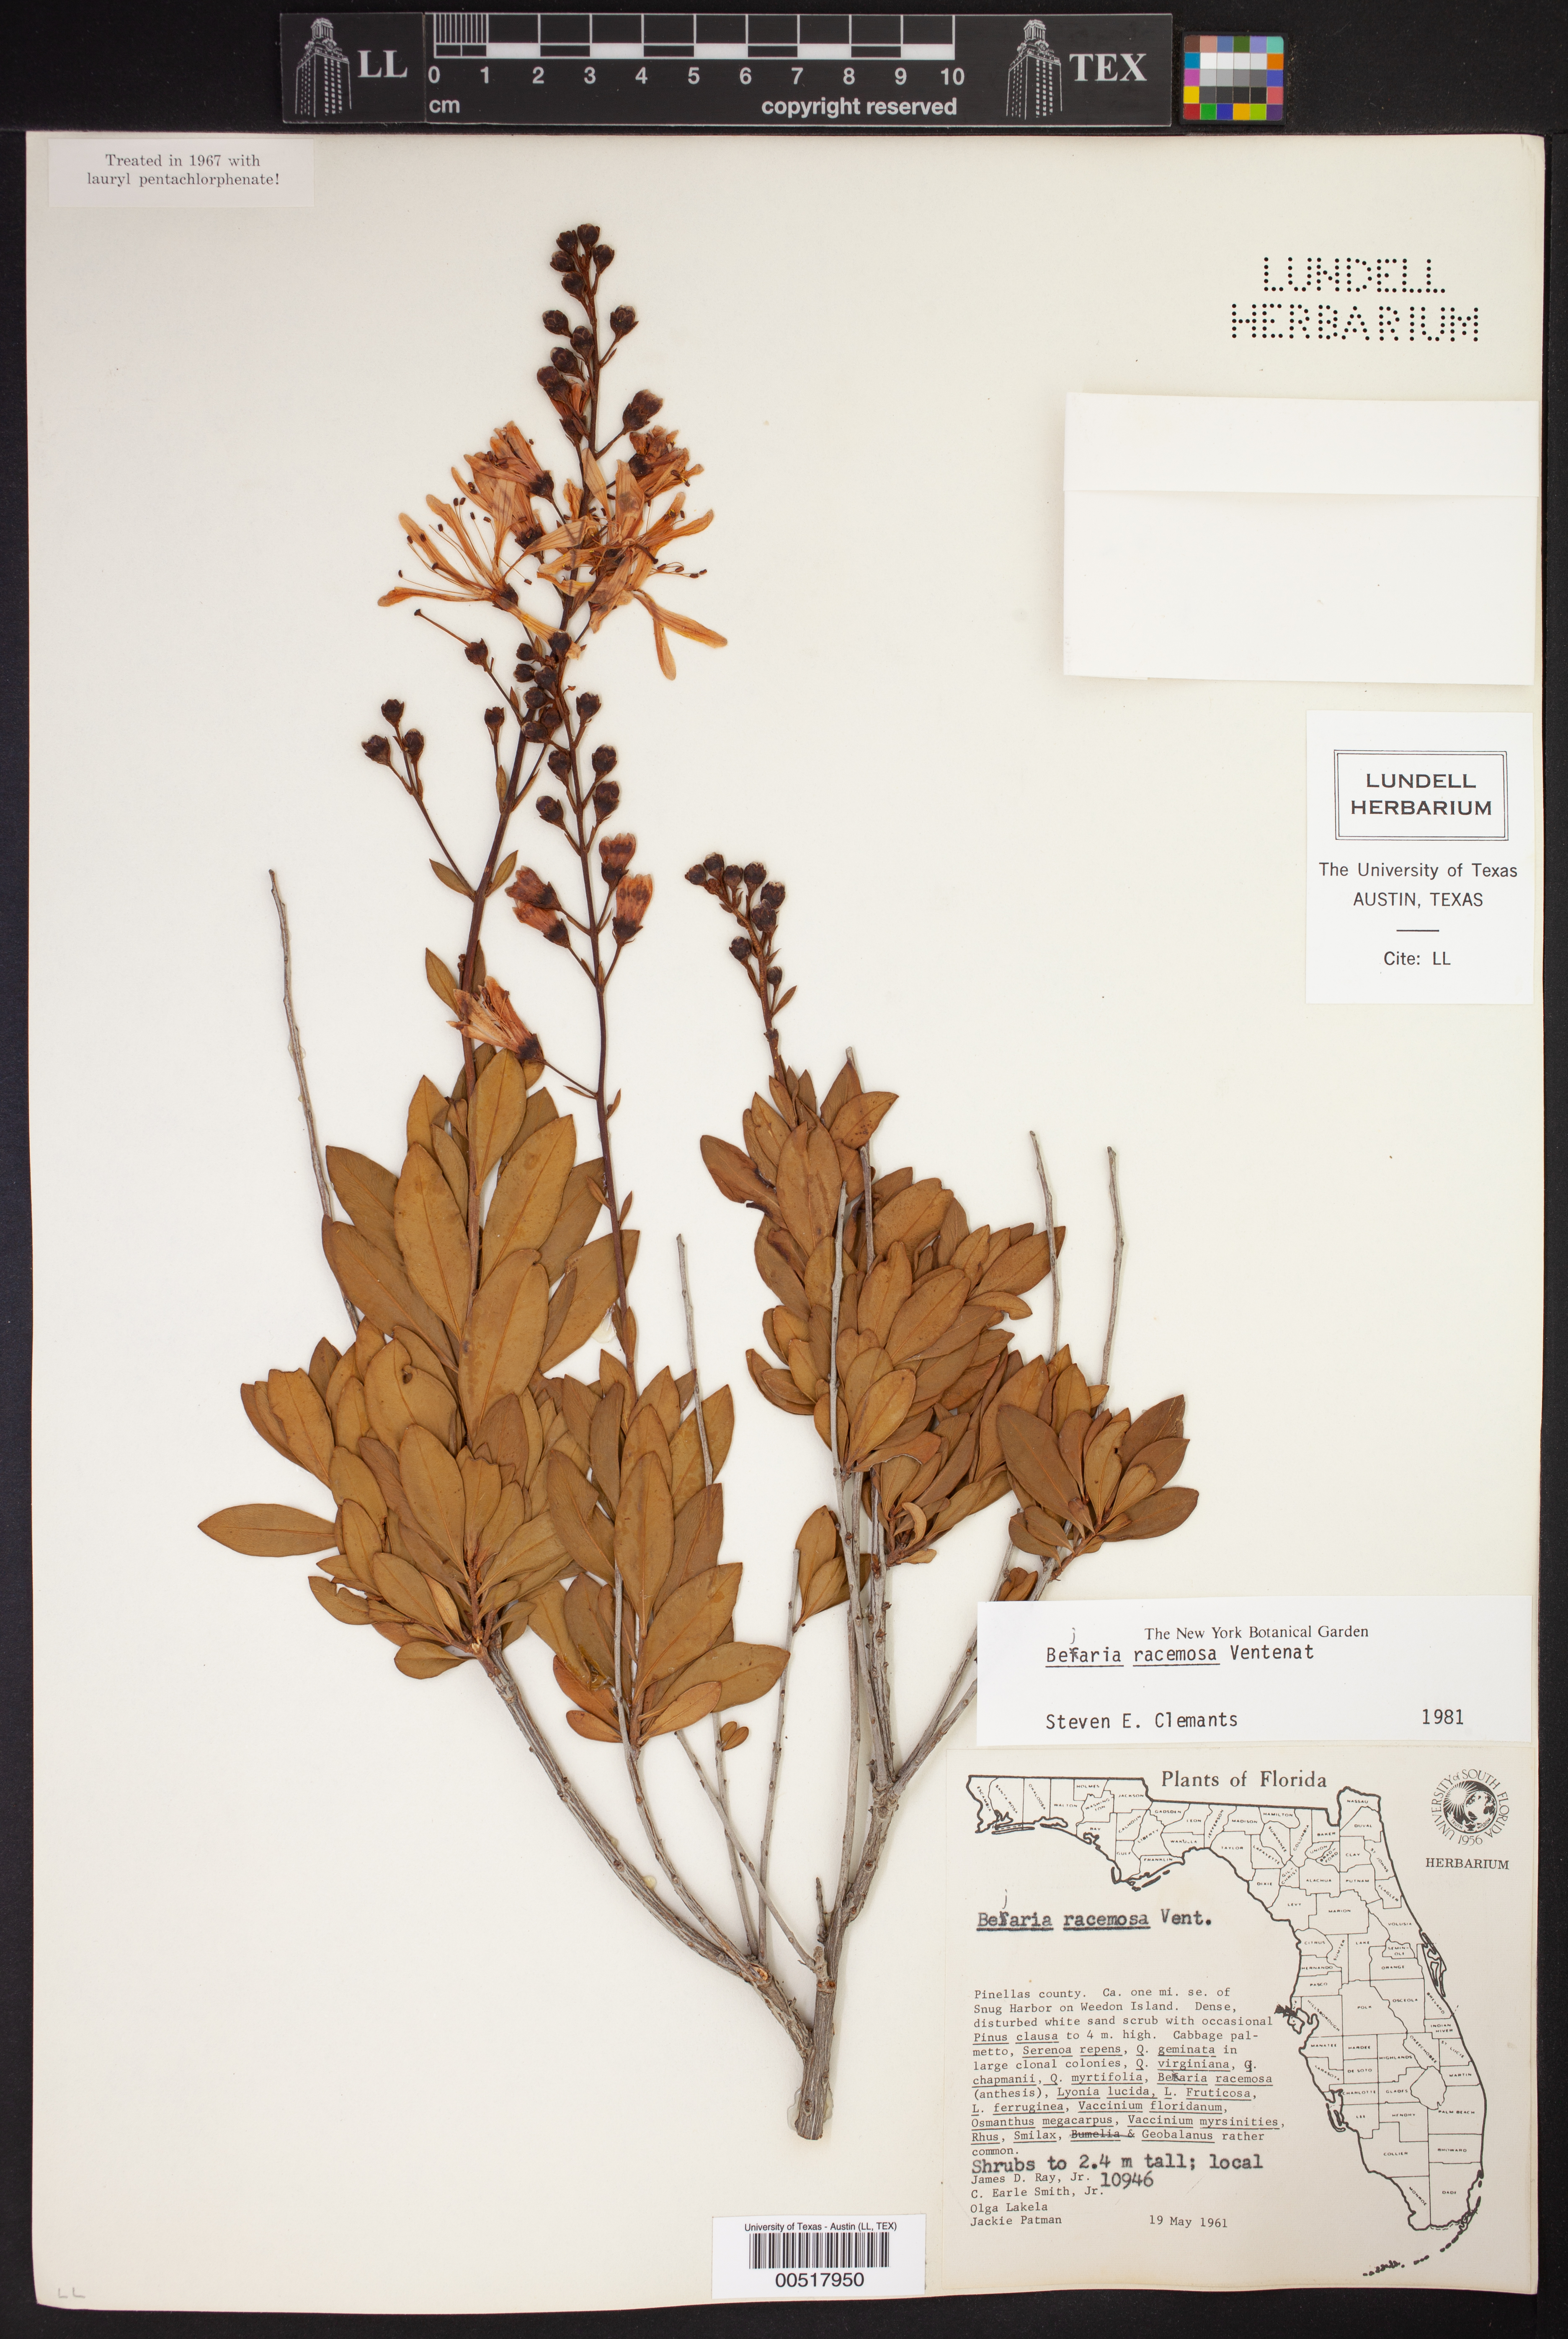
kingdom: Plantae
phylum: Tracheophyta
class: Magnoliopsida
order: Ericales
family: Ericaceae
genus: Bejaria
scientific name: Bejaria racemosa
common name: Tarflower
